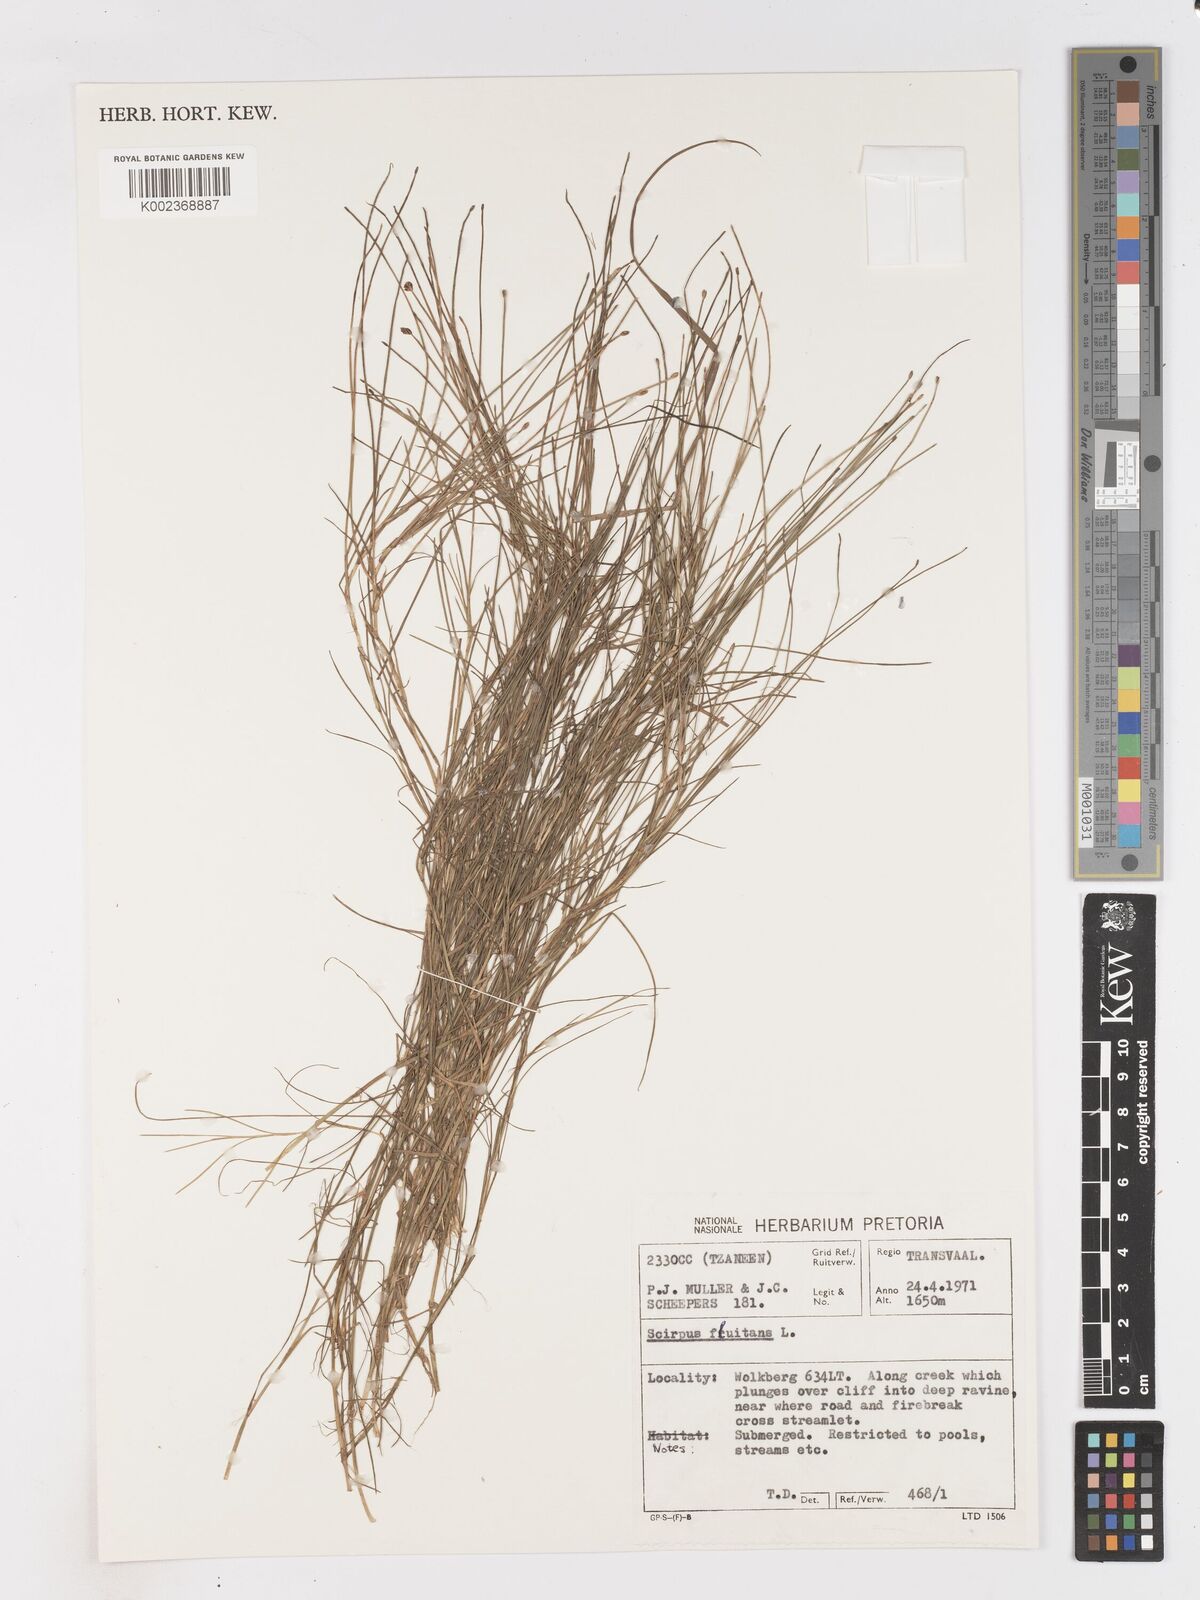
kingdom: Plantae
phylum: Tracheophyta
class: Liliopsida
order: Poales
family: Cyperaceae
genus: Isolepis
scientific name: Isolepis fluitans
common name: Floating club-rush
